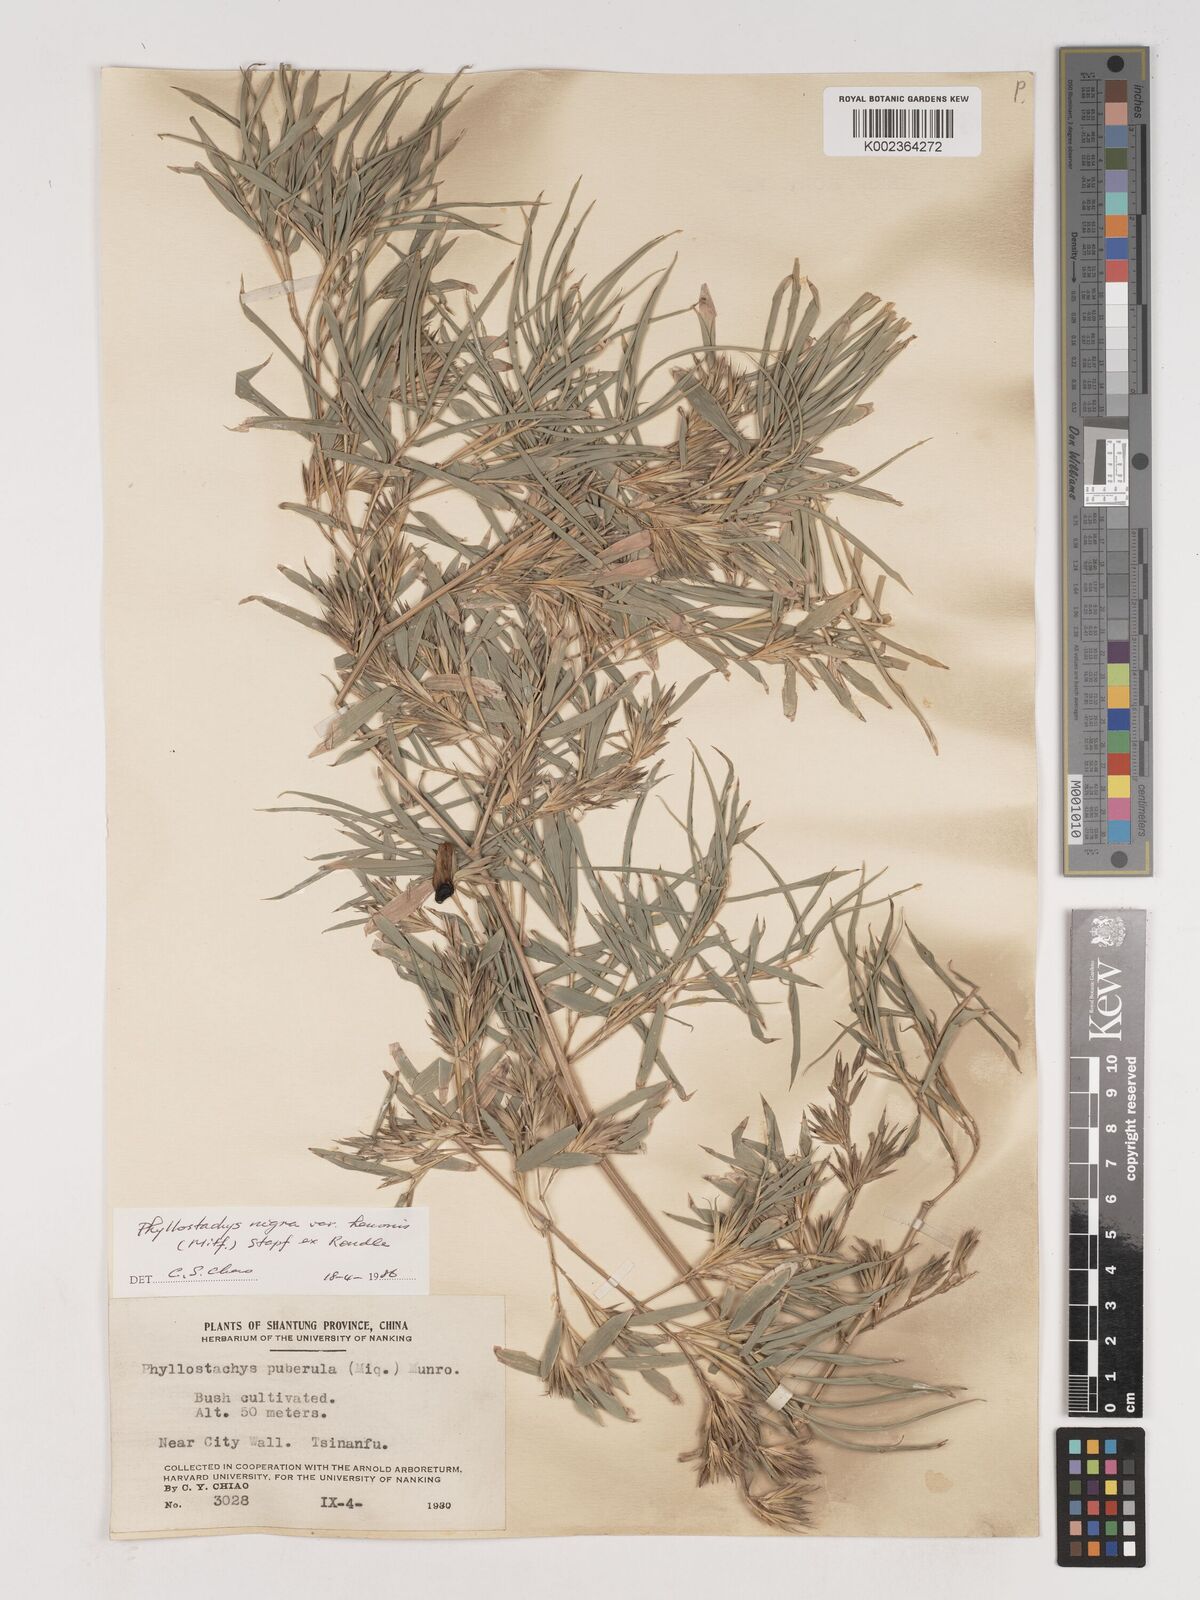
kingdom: Plantae
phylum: Tracheophyta
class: Liliopsida
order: Poales
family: Poaceae
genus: Phyllostachys
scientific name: Phyllostachys nigra
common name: Black bamboo
